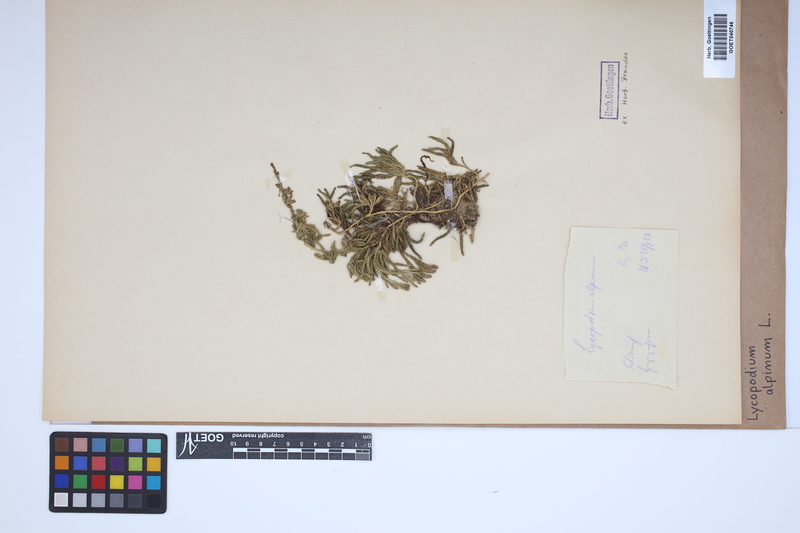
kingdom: Plantae
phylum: Tracheophyta
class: Lycopodiopsida
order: Lycopodiales
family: Lycopodiaceae
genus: Diphasiastrum
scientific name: Diphasiastrum alpinum
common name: Alpine clubmoss
